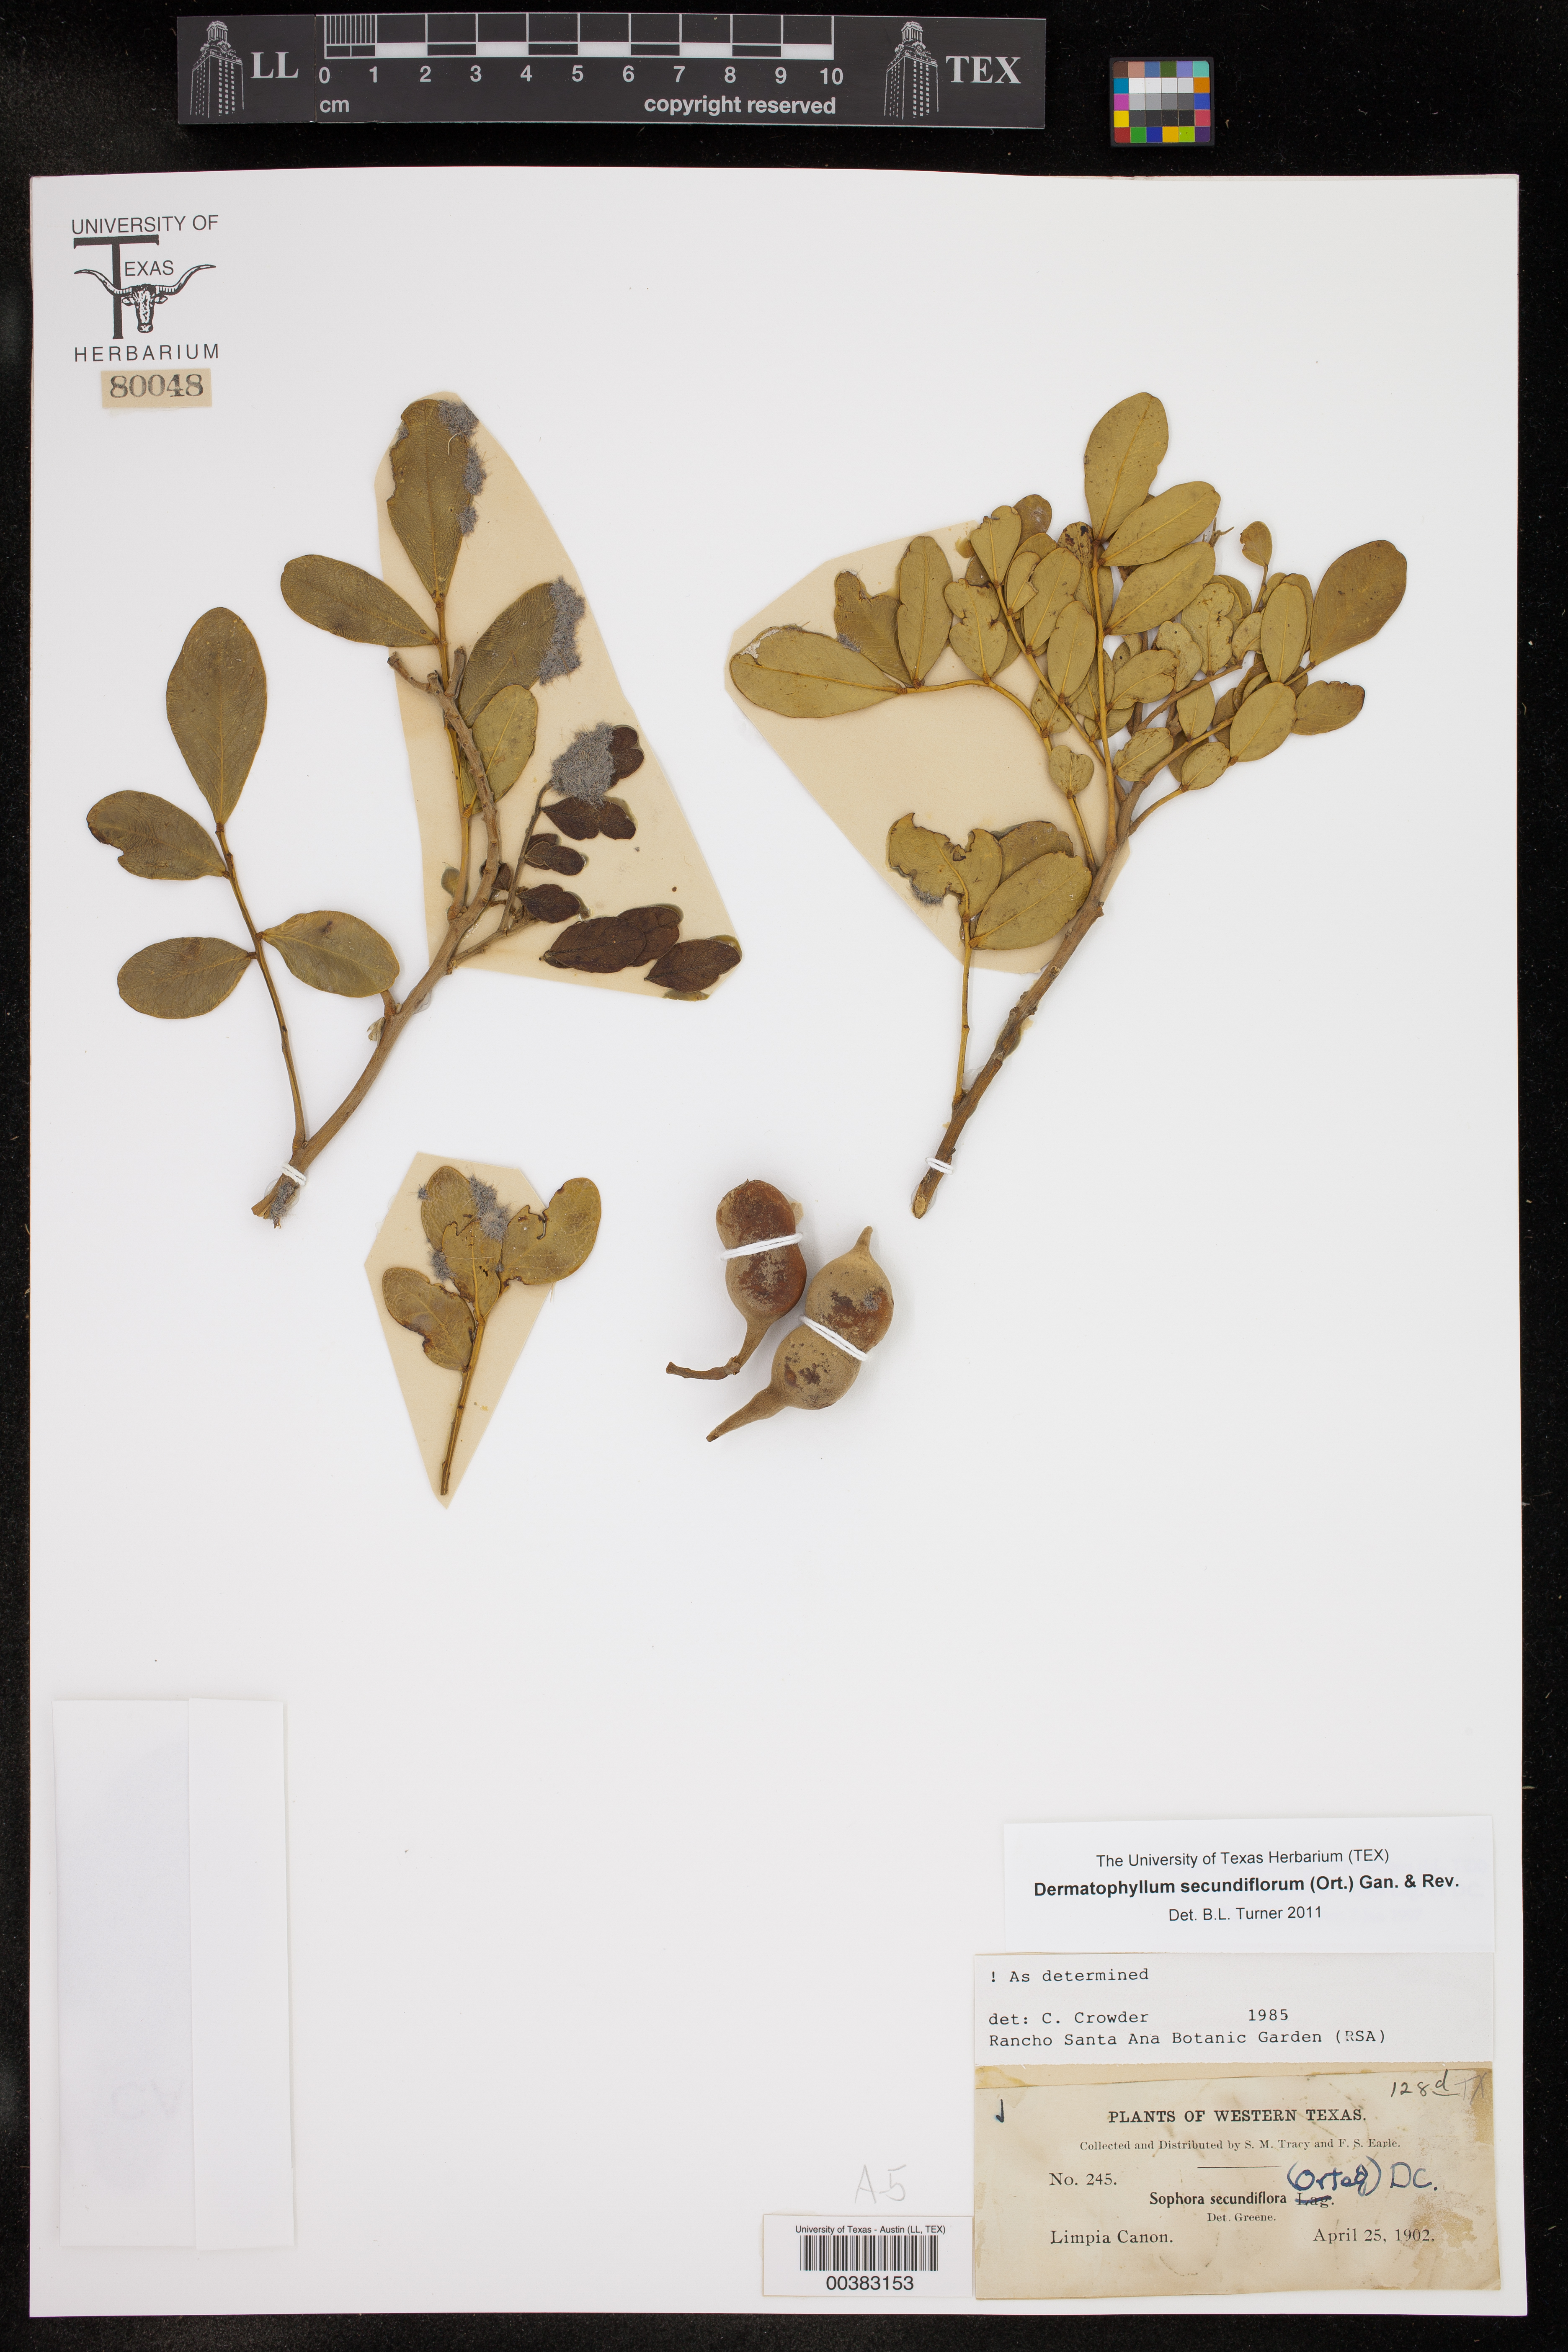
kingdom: Plantae
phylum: Tracheophyta
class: Magnoliopsida
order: Fabales
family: Fabaceae
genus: Dermatophyllum
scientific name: Dermatophyllum secundiflorum
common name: Texas-mountain-laurel
